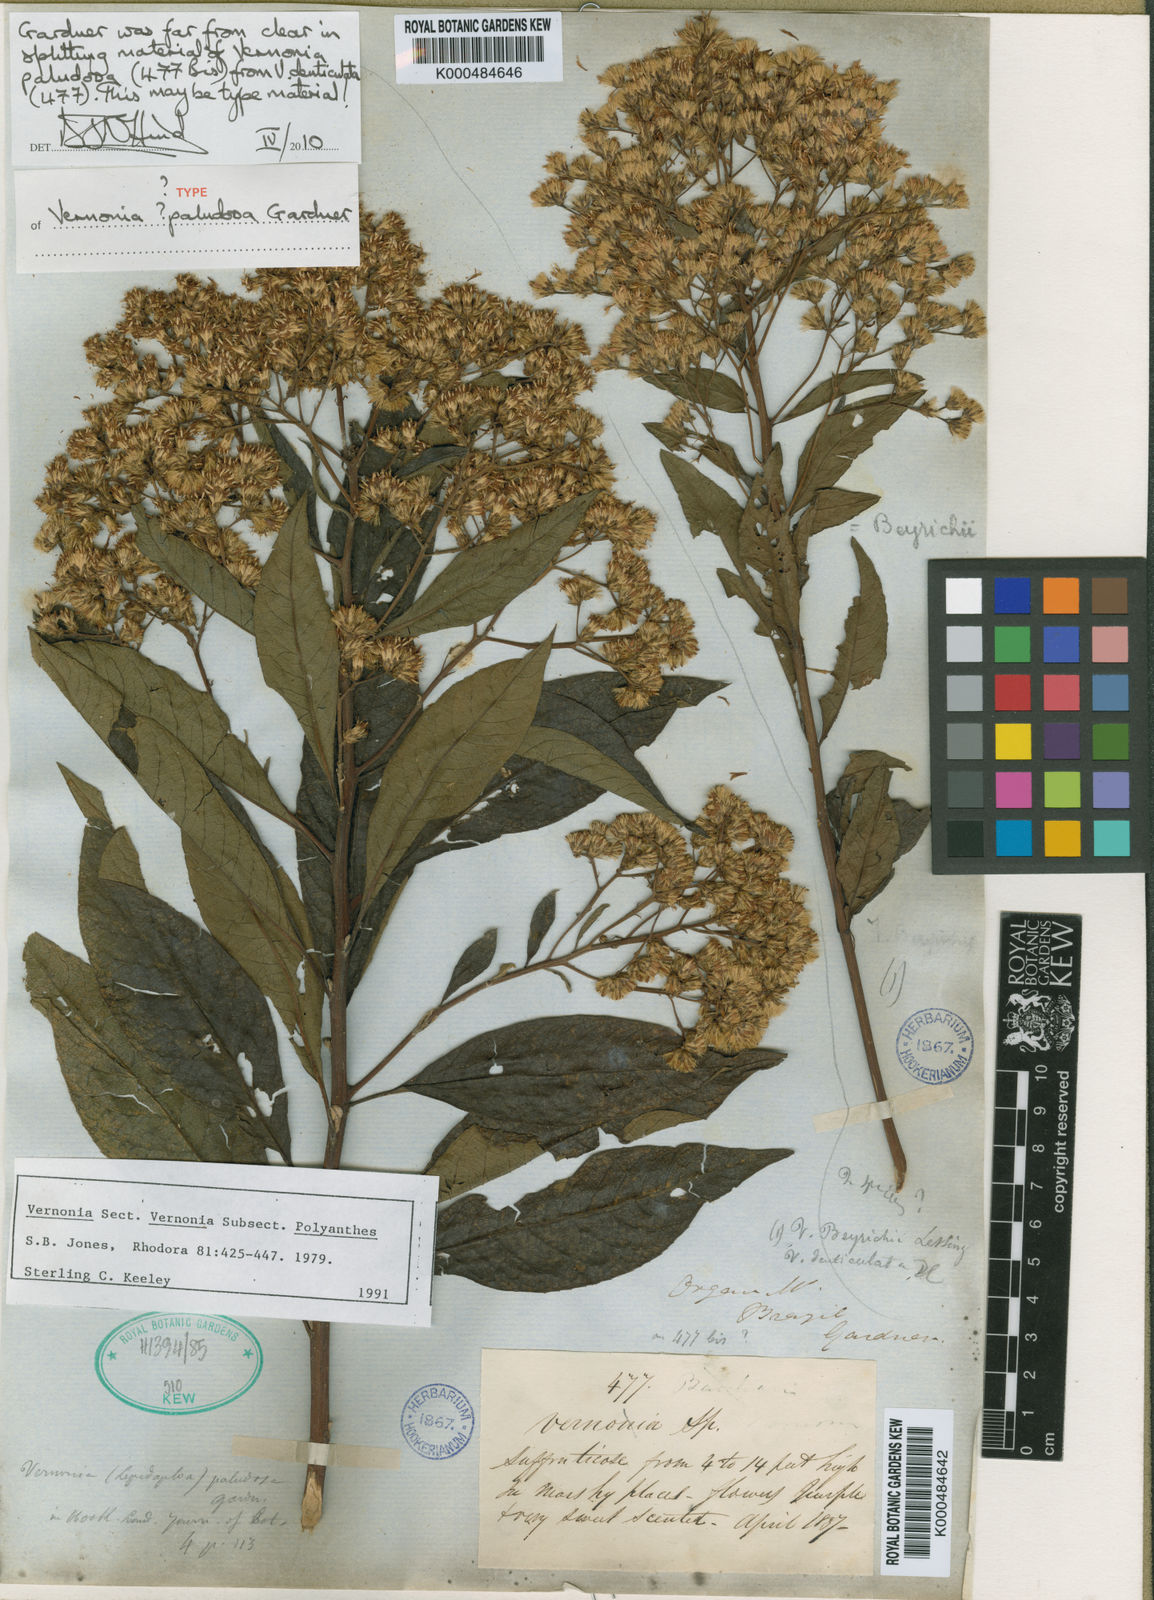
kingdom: Plantae
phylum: Tracheophyta
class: Magnoliopsida
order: Asterales
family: Asteraceae
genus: Vernonanthura
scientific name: Vernonanthura paludosa
